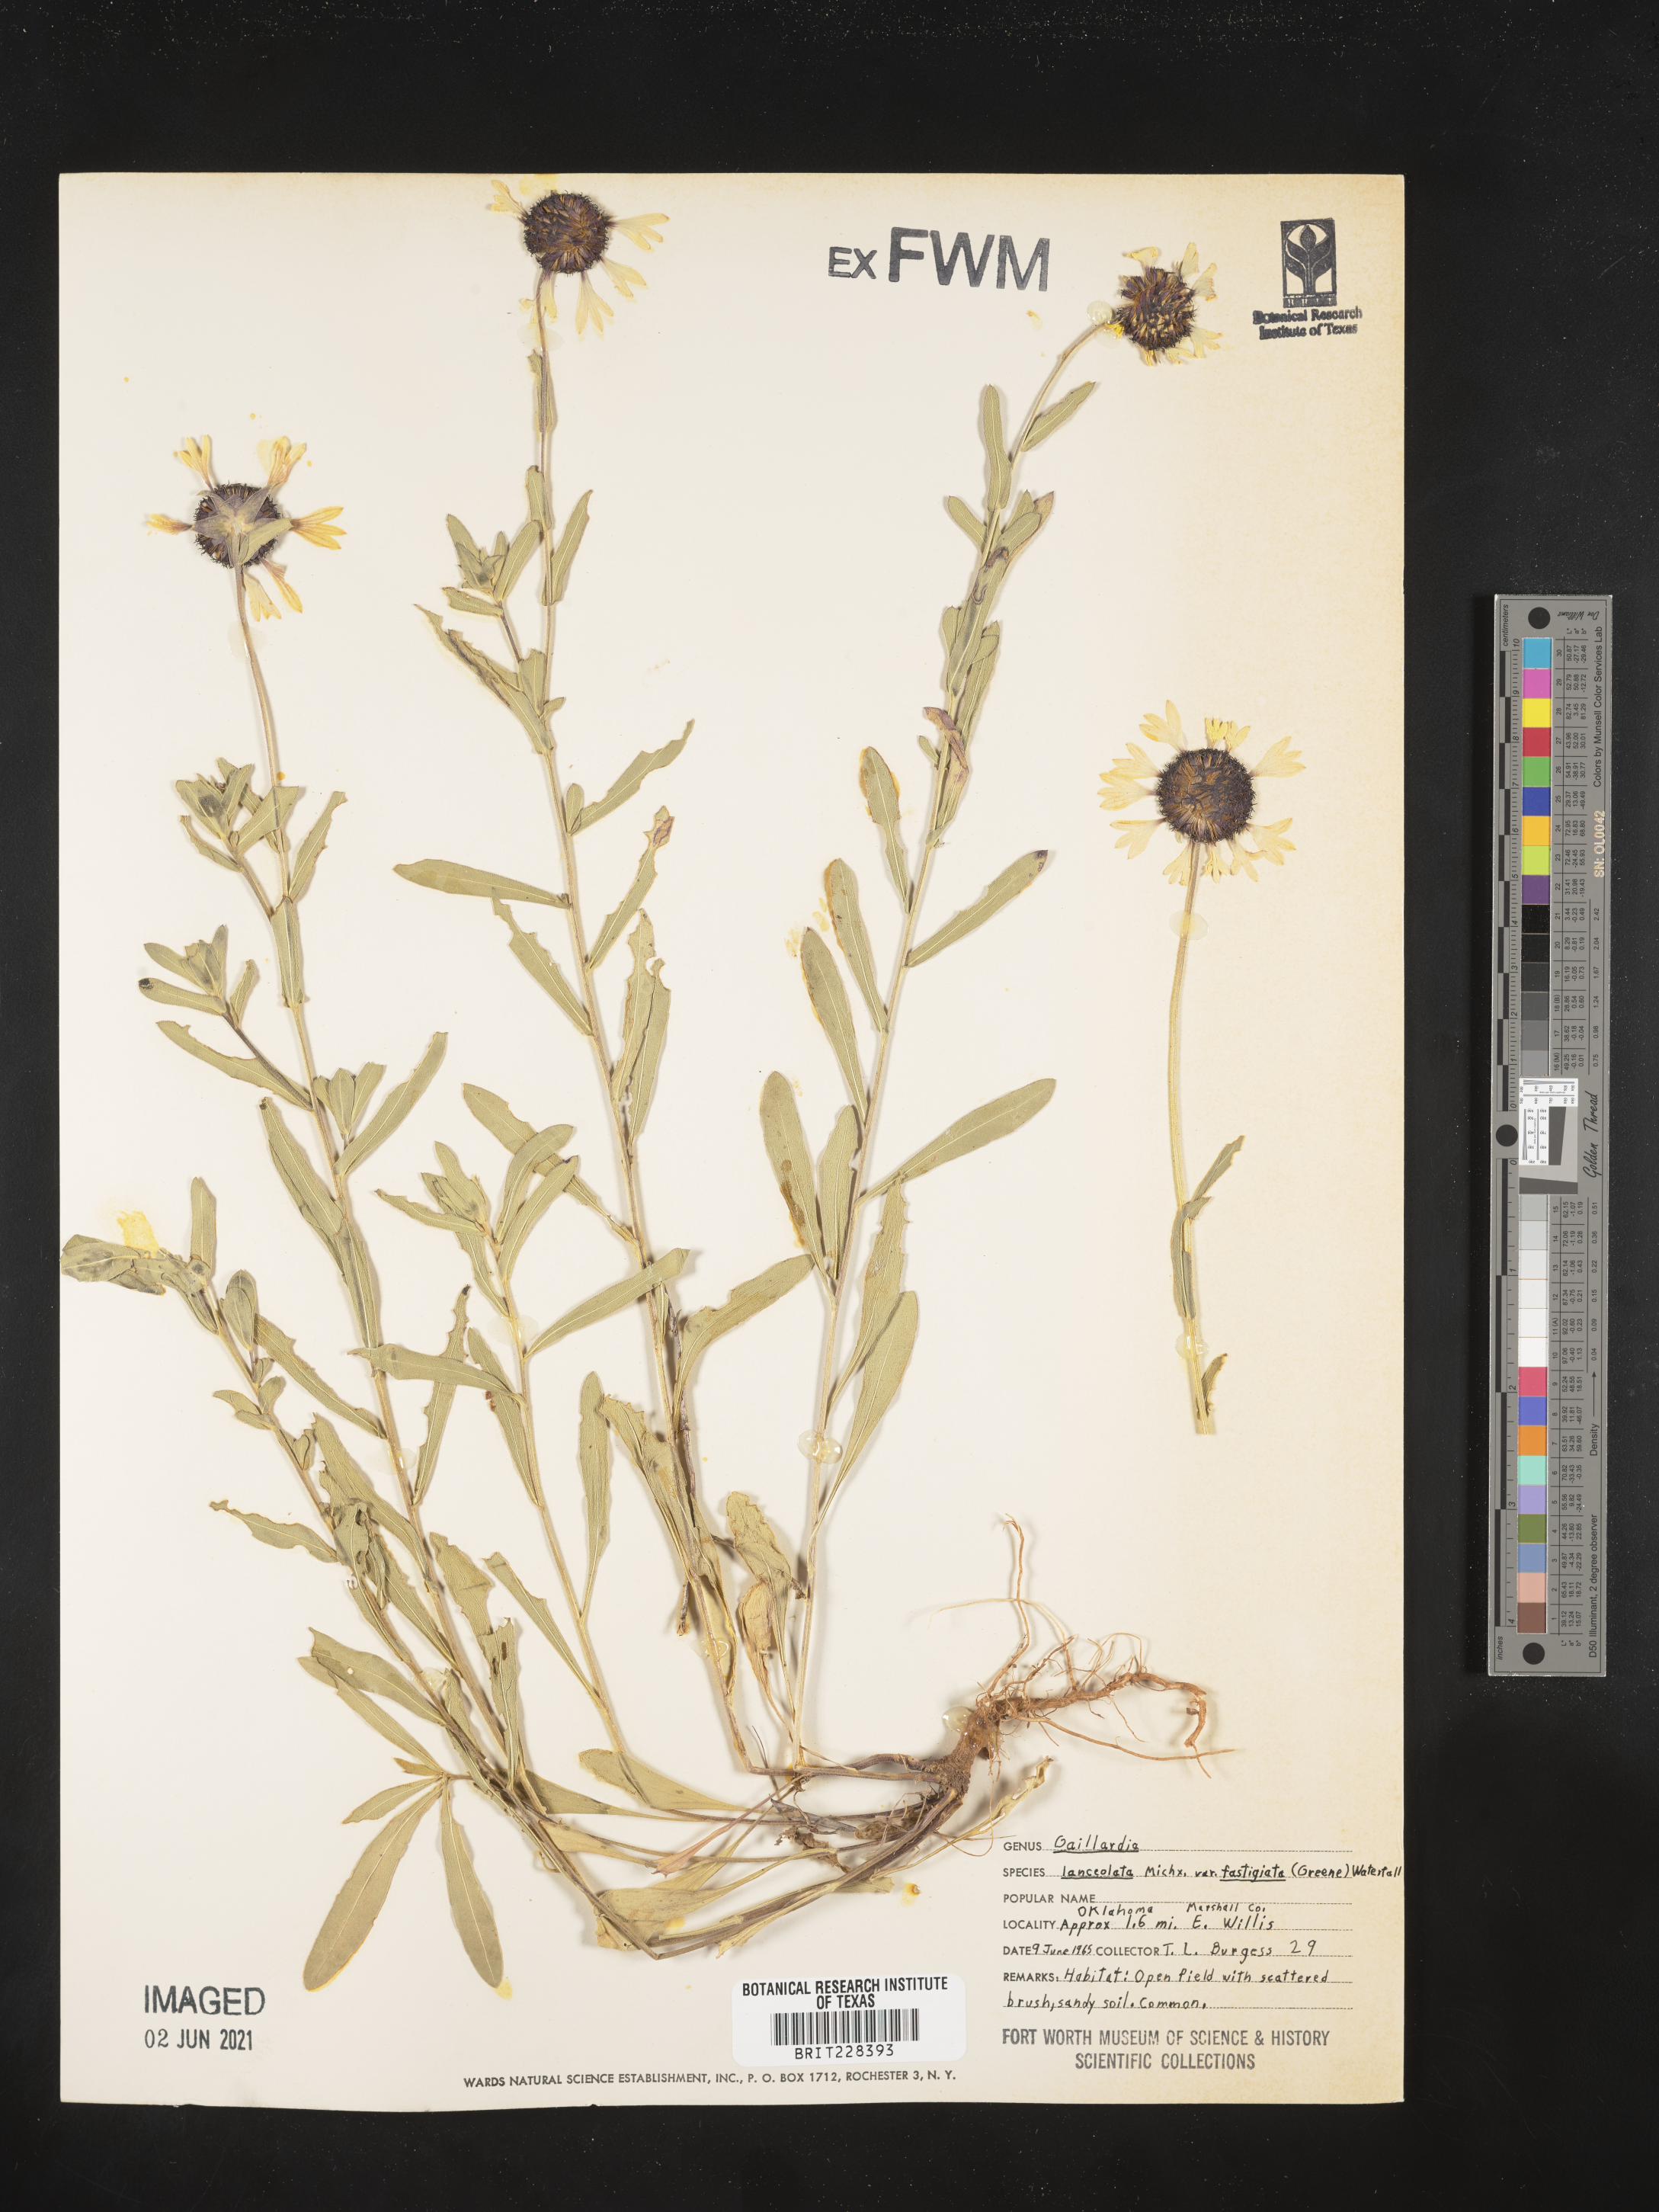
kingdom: Plantae
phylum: Tracheophyta
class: Magnoliopsida
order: Asterales
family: Asteraceae
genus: Gaillardia
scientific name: Gaillardia aestivalis
